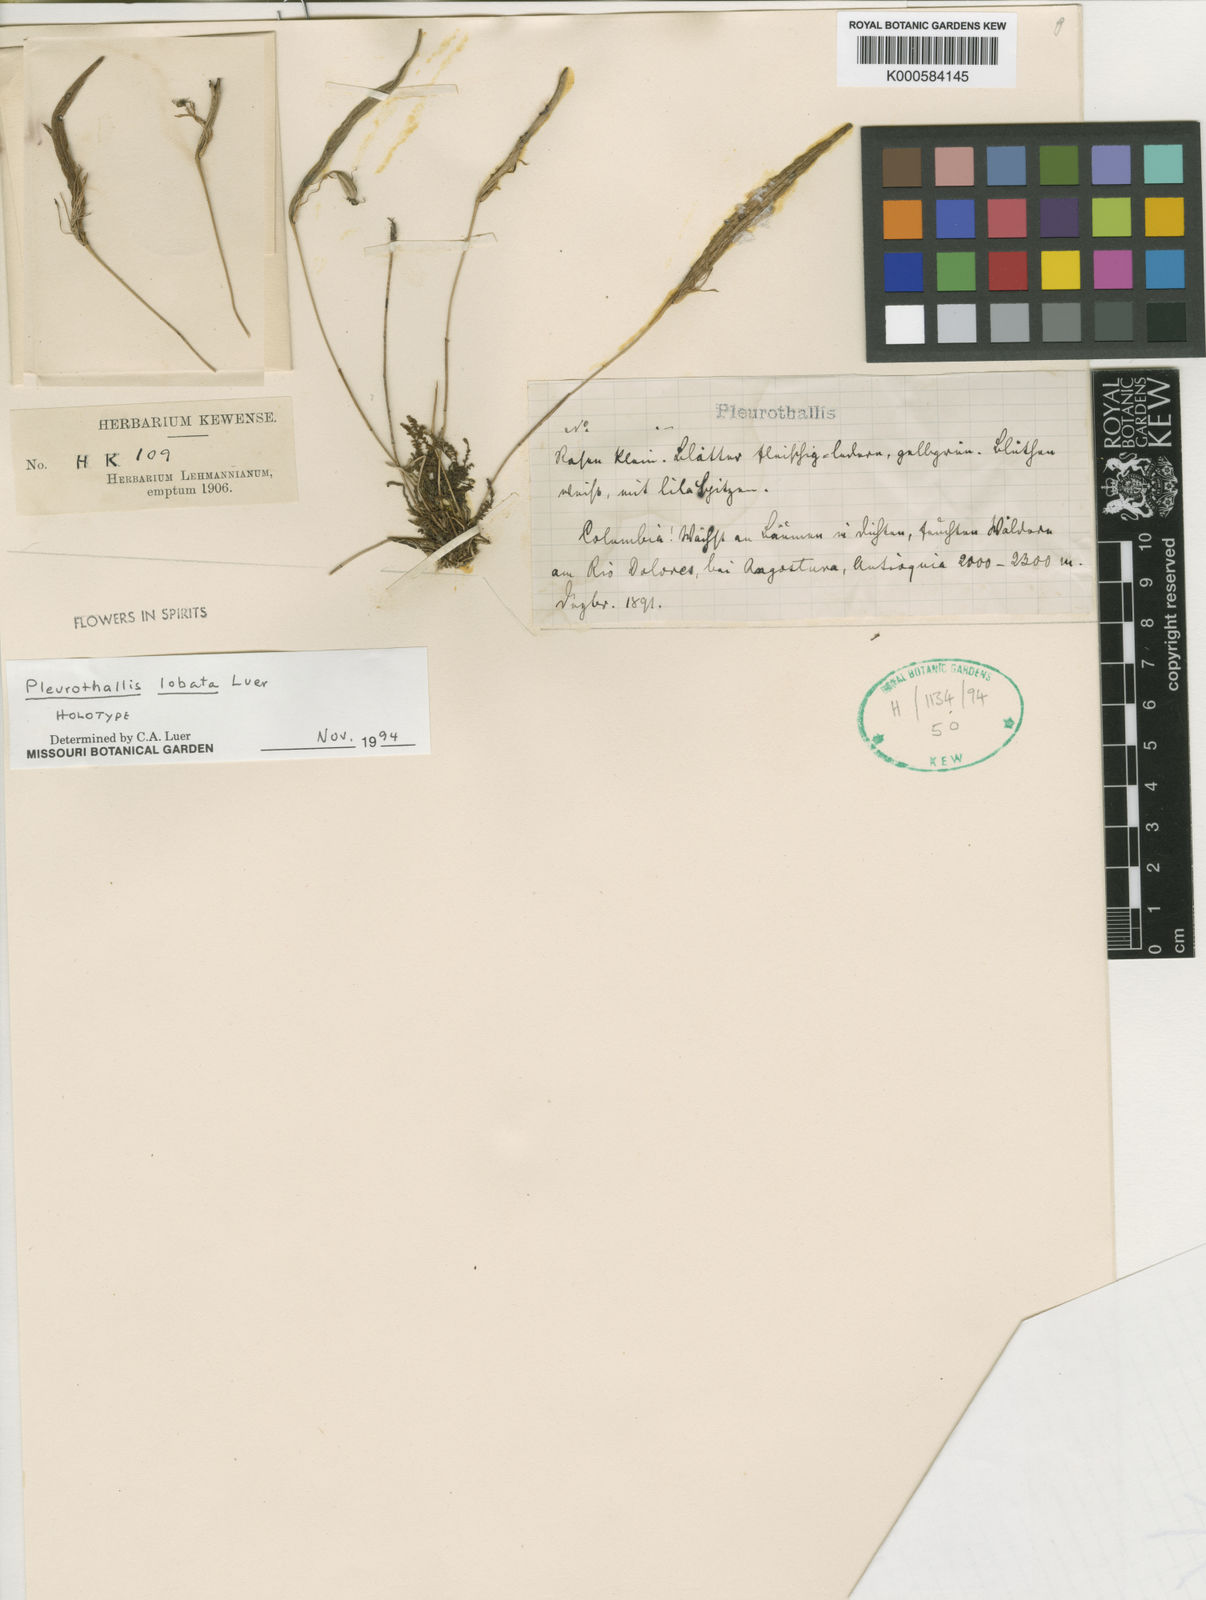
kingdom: Plantae
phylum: Tracheophyta
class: Liliopsida
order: Asparagales
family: Orchidaceae
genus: Pleurothallis
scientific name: Pleurothallis lobata
